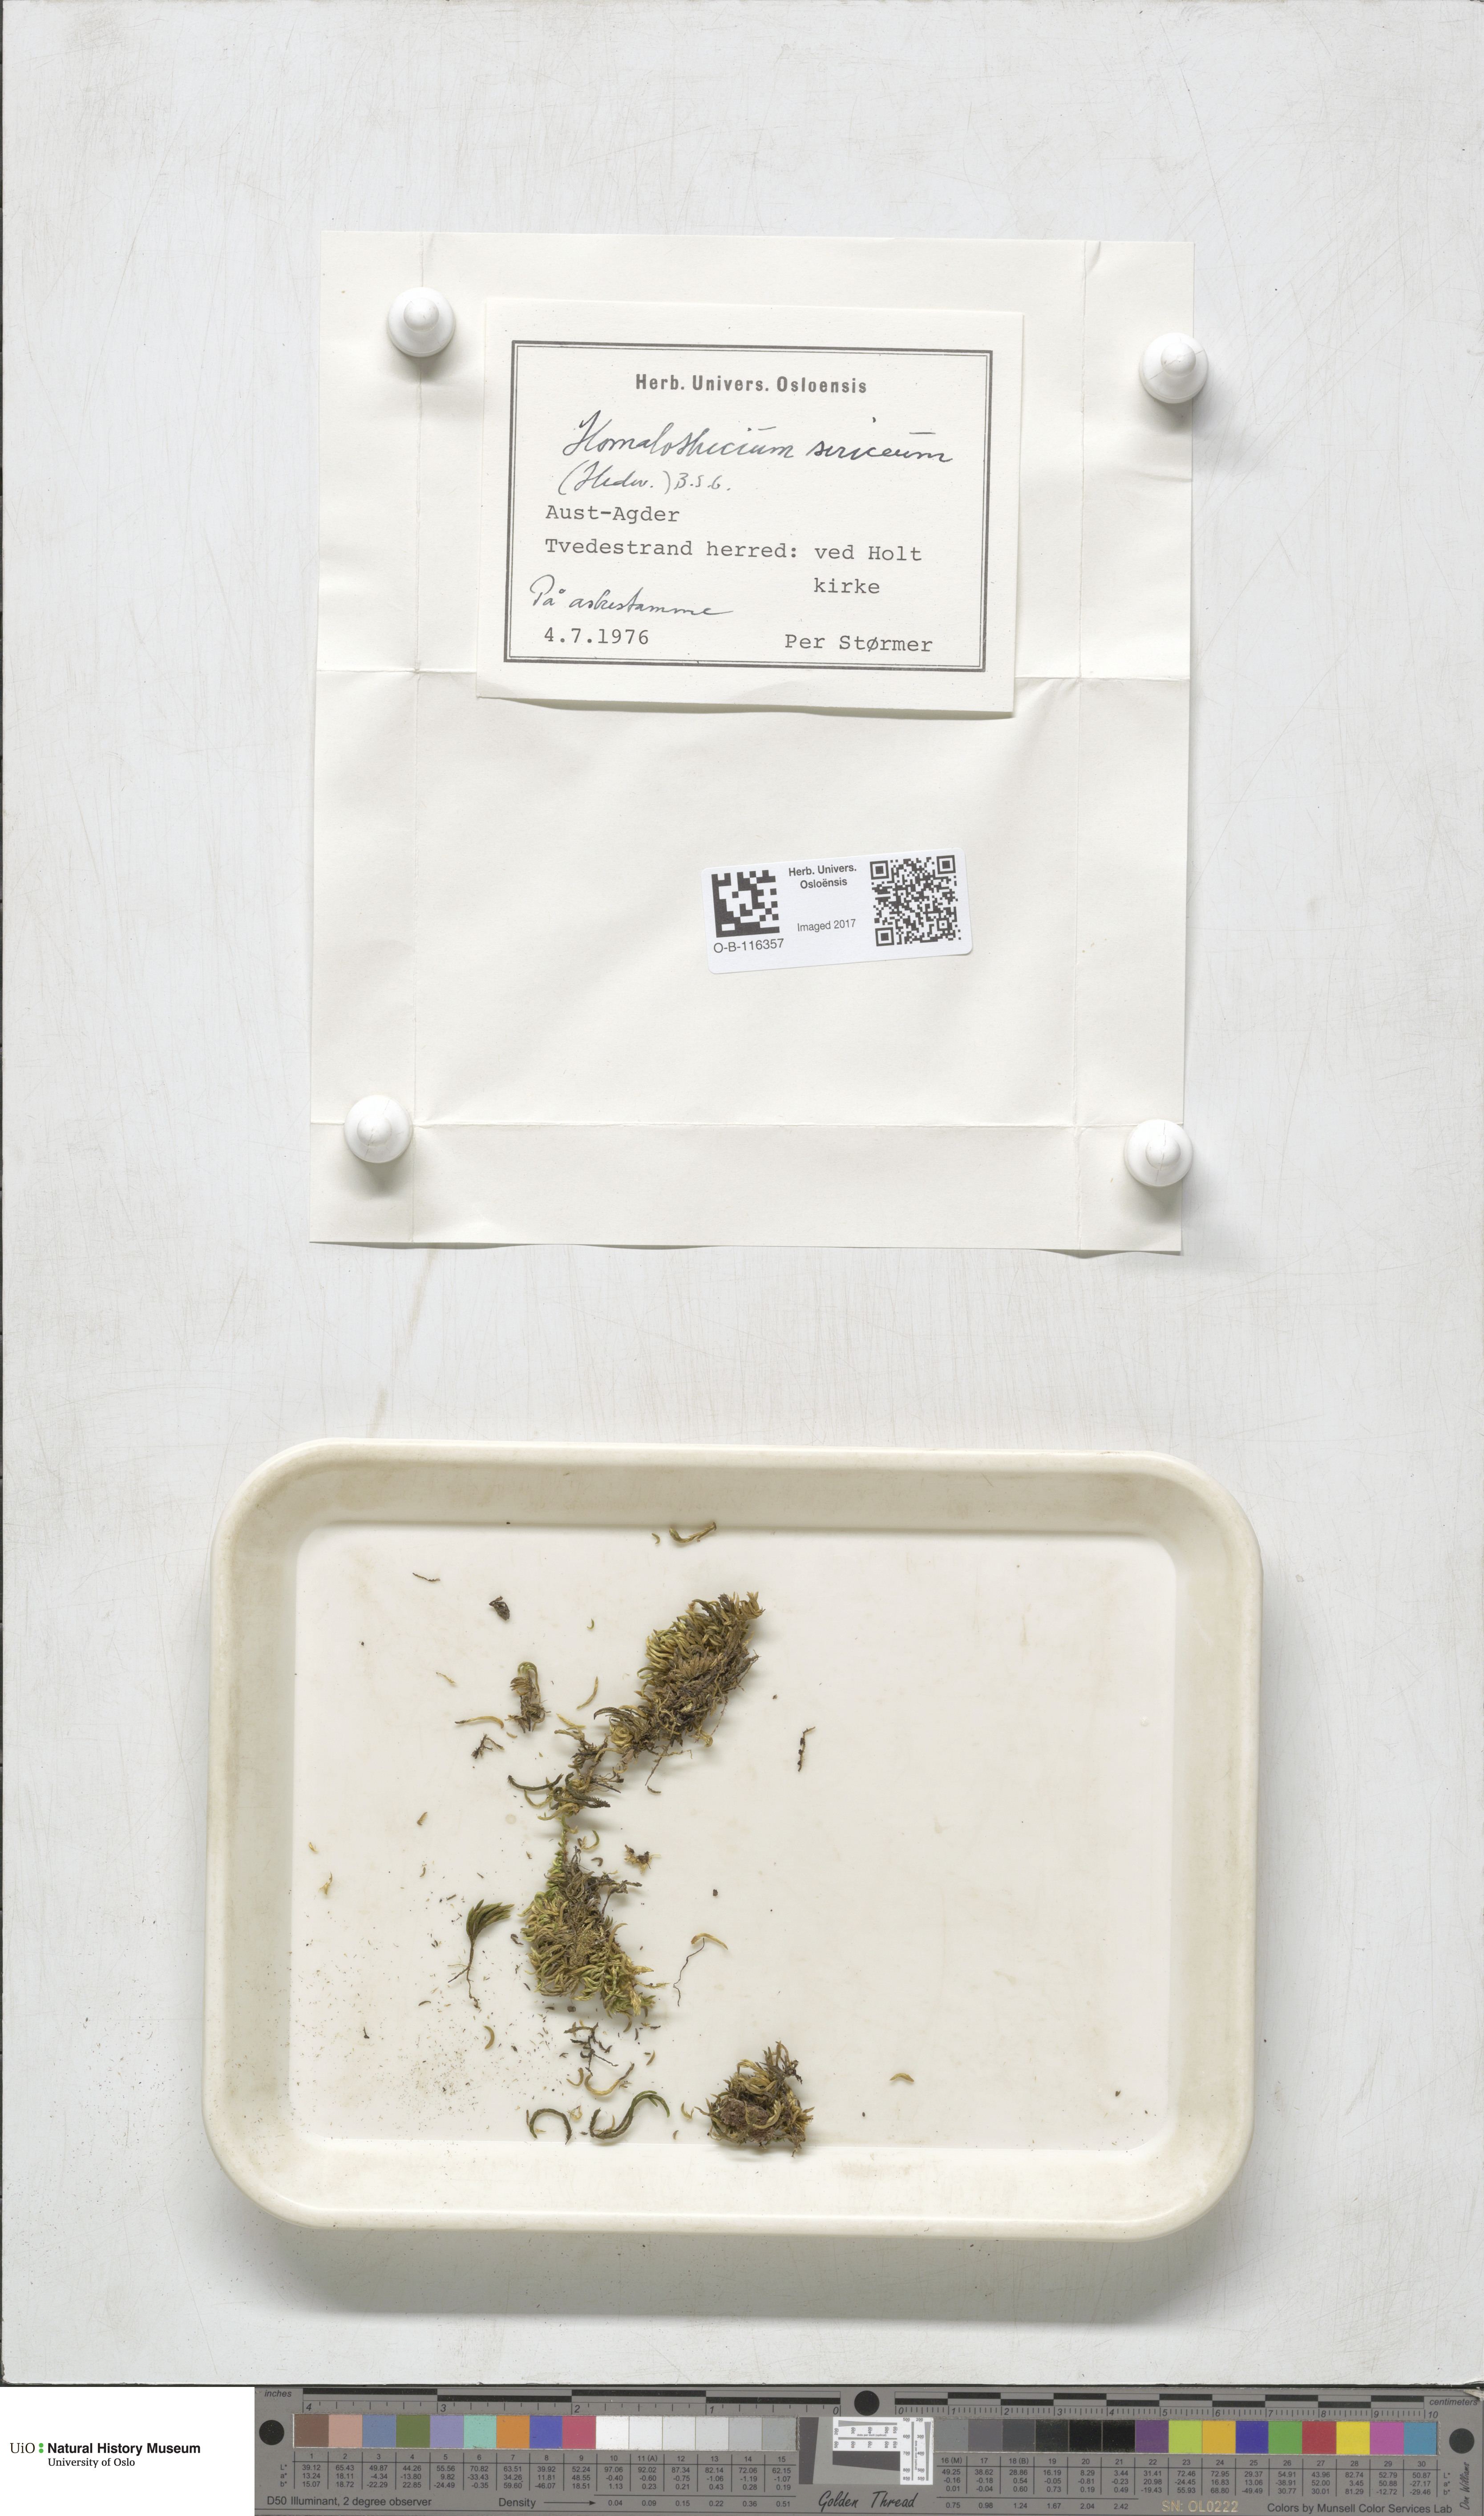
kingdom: Plantae
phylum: Bryophyta
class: Bryopsida
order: Hypnales
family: Brachytheciaceae
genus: Homalothecium
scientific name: Homalothecium sericeum
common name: Silky wall feather-moss
